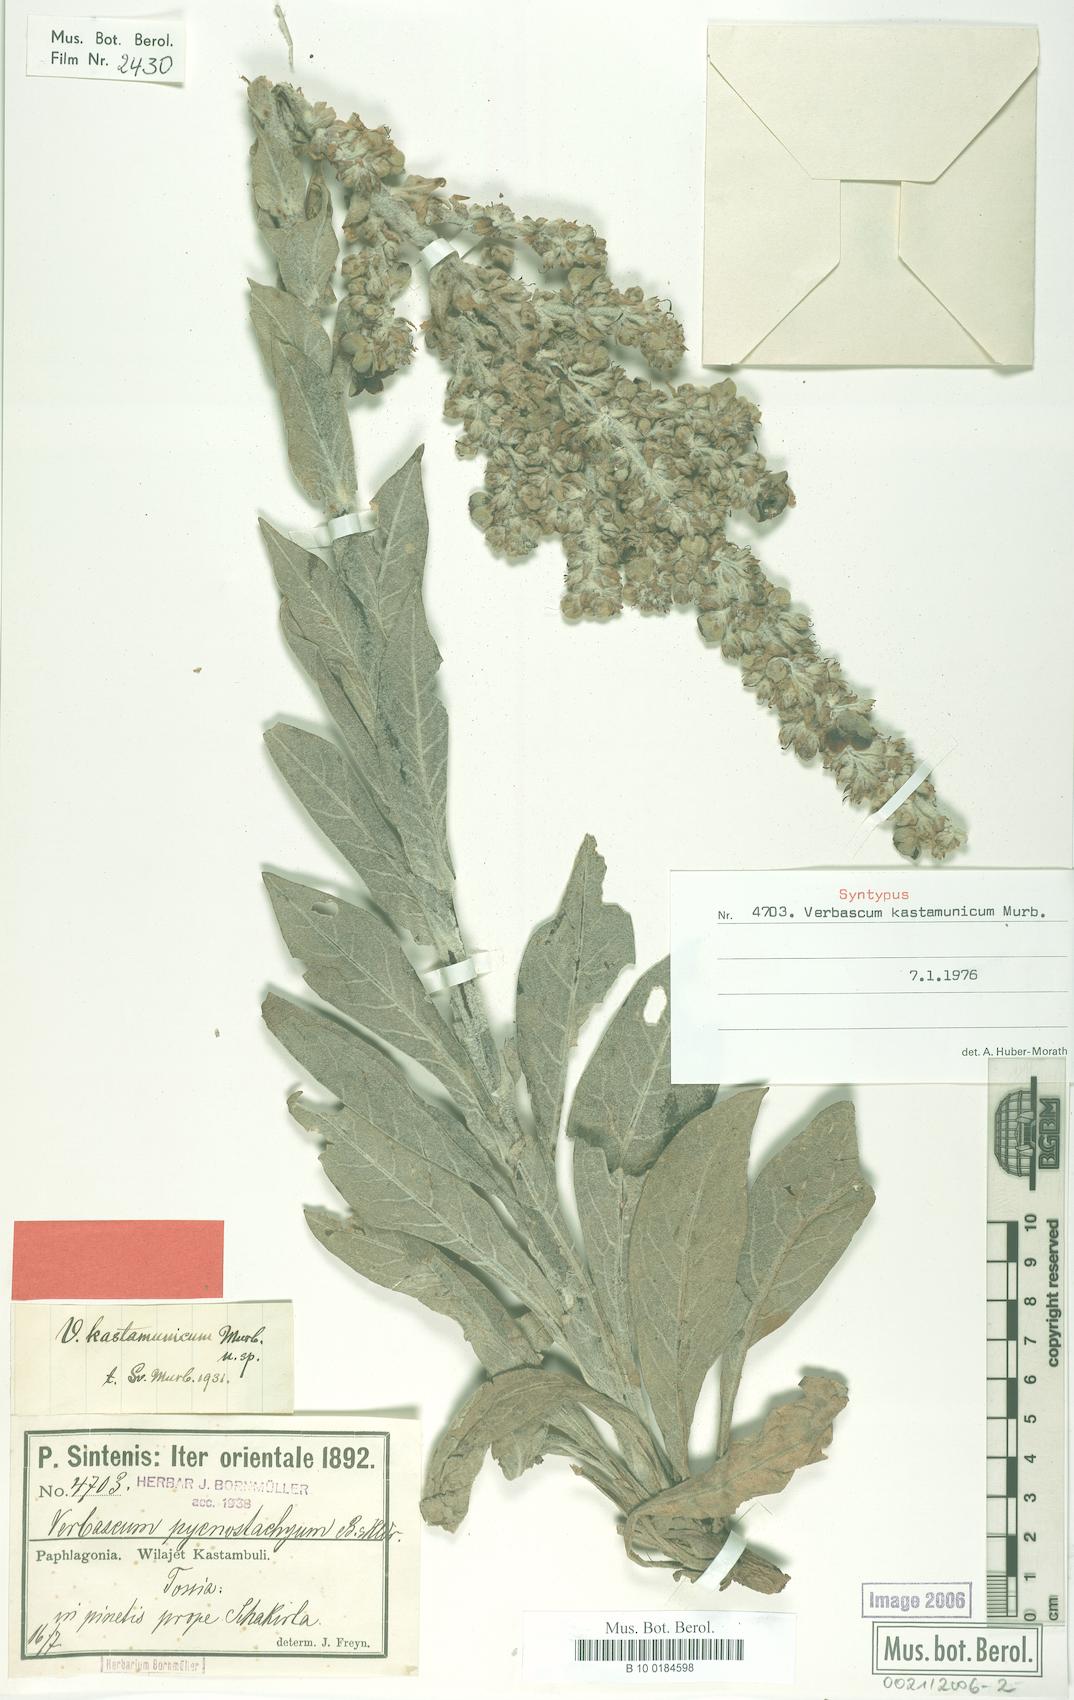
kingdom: Plantae
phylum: Tracheophyta
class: Magnoliopsida
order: Lamiales
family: Scrophulariaceae
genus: Verbascum
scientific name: Verbascum kastamunicum
